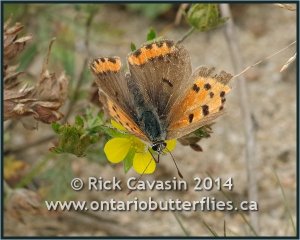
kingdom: Animalia
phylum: Arthropoda
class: Insecta
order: Lepidoptera
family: Lycaenidae
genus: Lycaena
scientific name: Lycaena phlaeas
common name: American Copper
